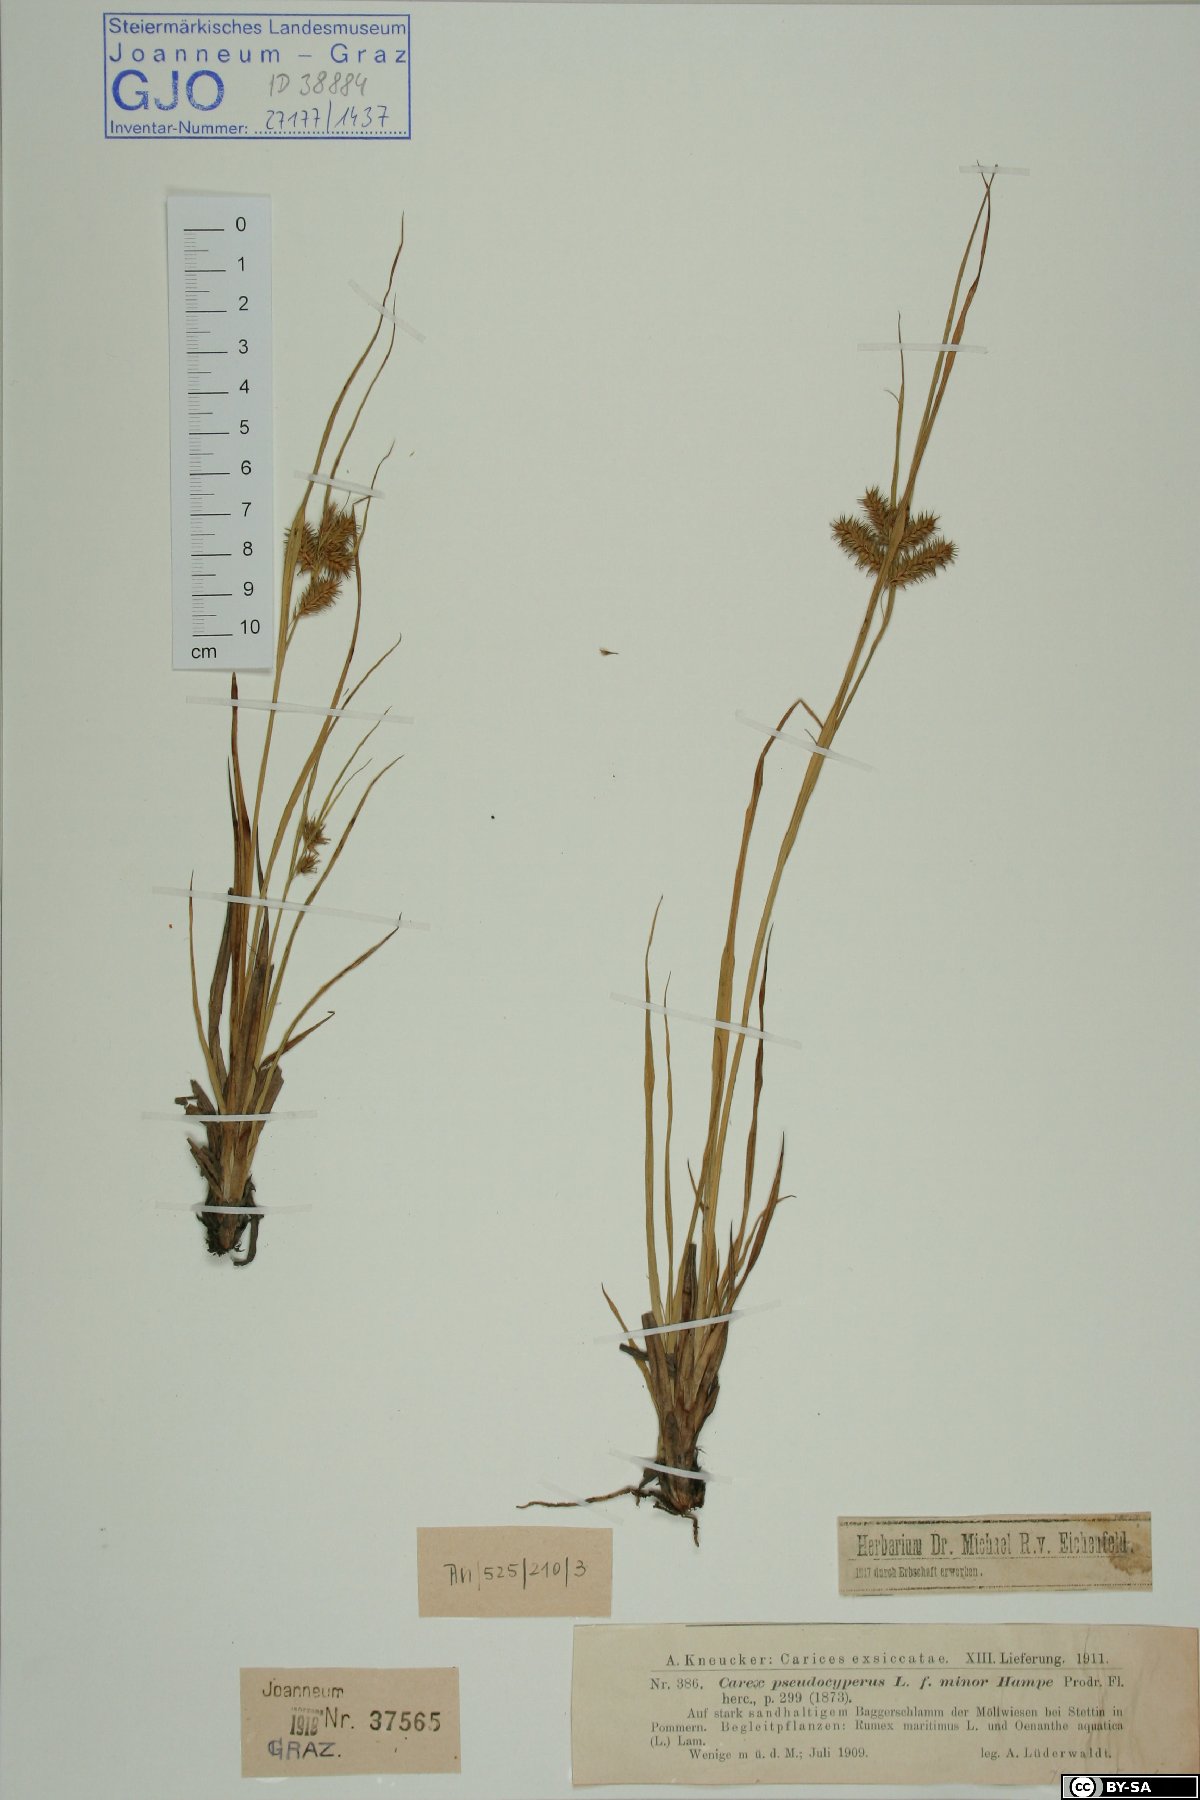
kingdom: Plantae
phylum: Tracheophyta
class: Liliopsida
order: Poales
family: Cyperaceae
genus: Carex
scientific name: Carex pseudocyperus
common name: Cyperus sedge
